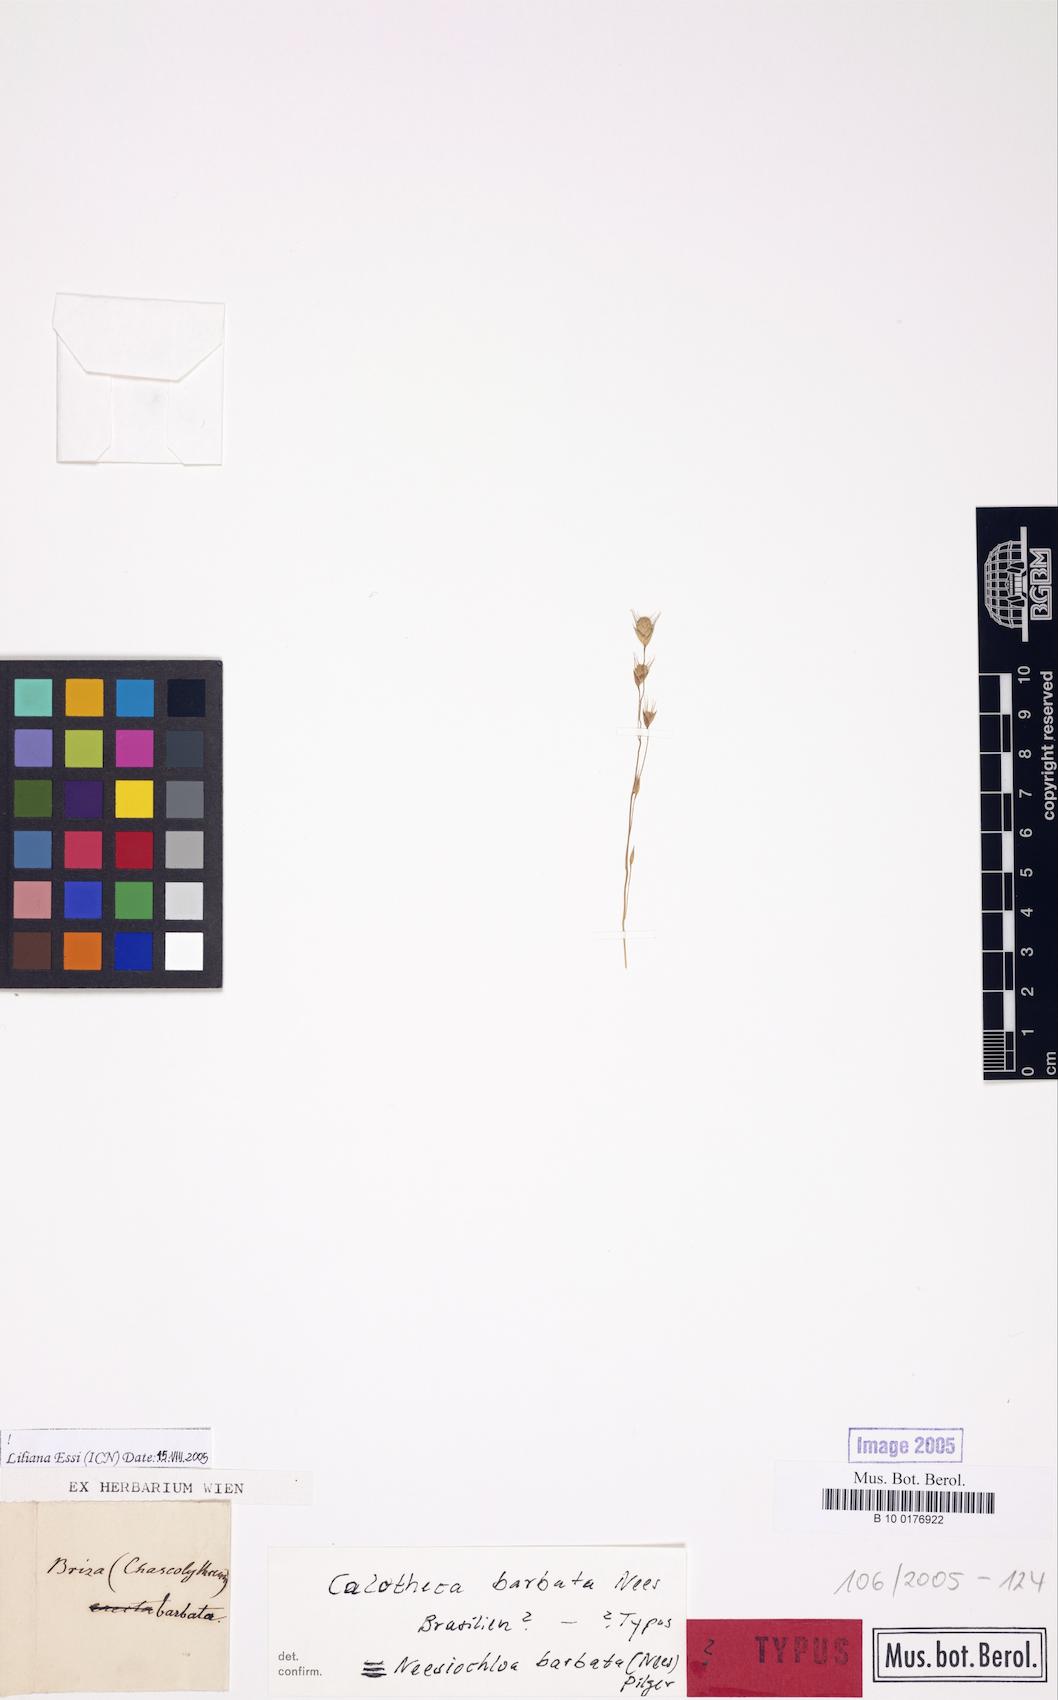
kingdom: Plantae
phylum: Tracheophyta
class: Liliopsida
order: Poales
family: Poaceae
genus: Neesiochloa
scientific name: Neesiochloa barbata
